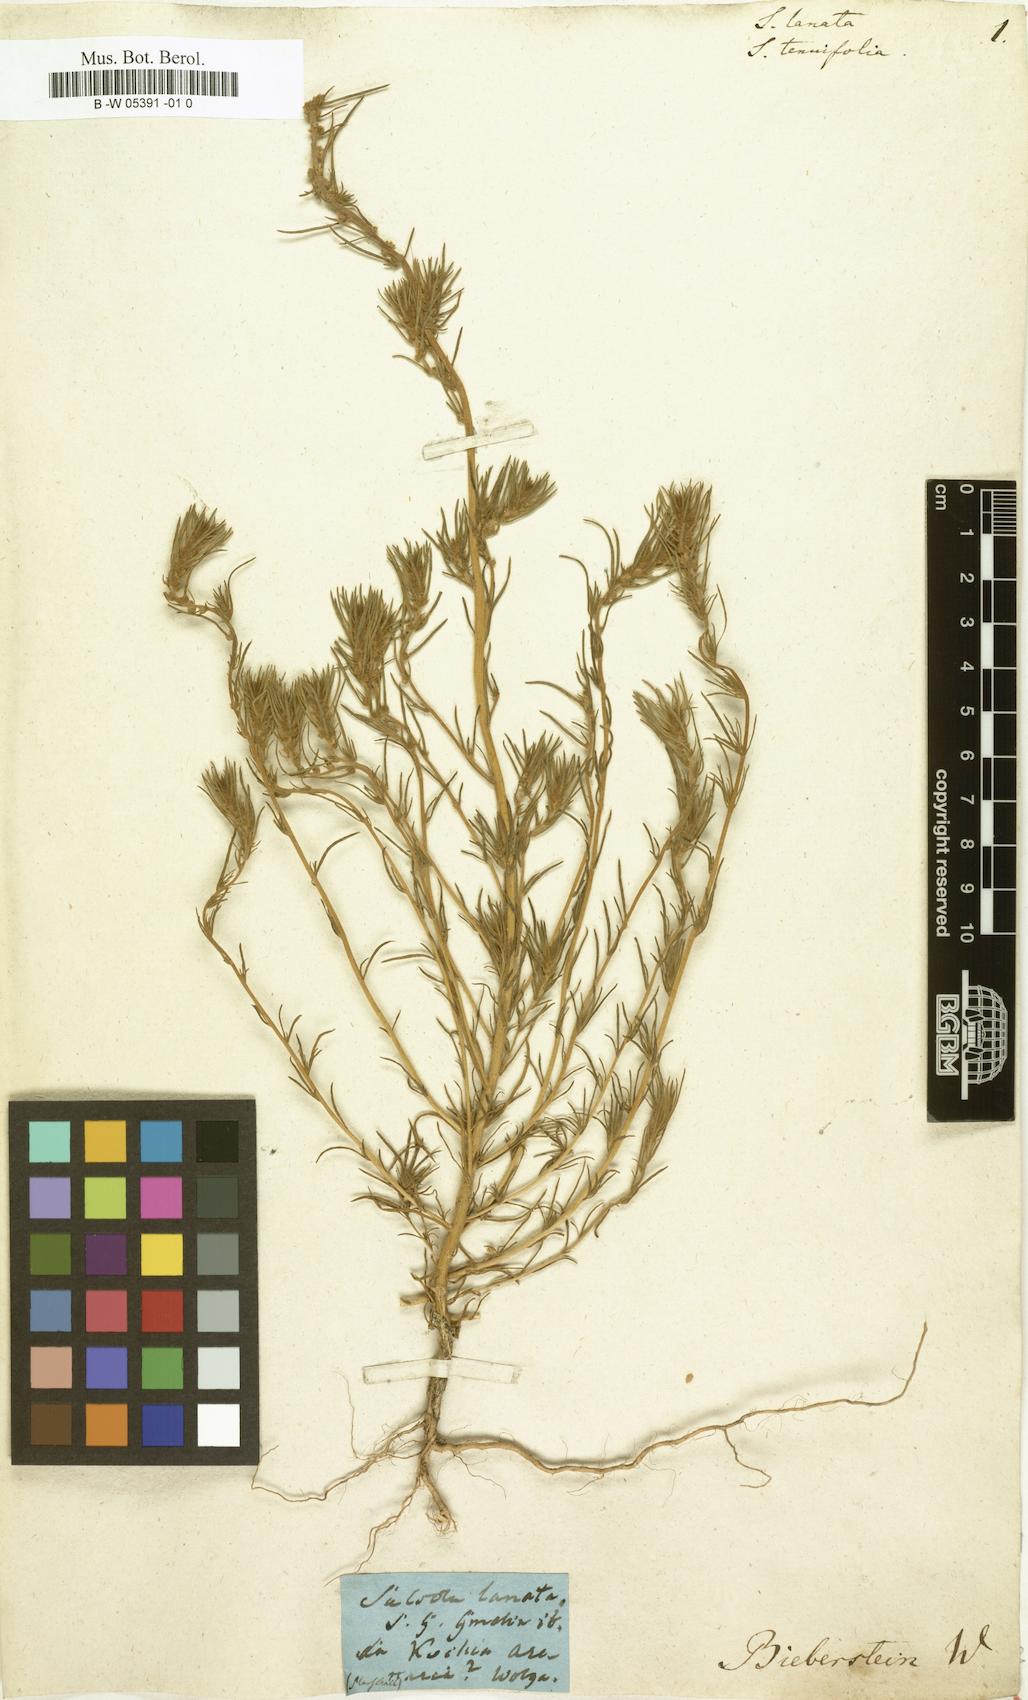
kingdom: Plantae
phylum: Tracheophyta
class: Magnoliopsida
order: Caryophyllales
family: Amaranthaceae
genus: Climacoptera
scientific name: Climacoptera lanata
